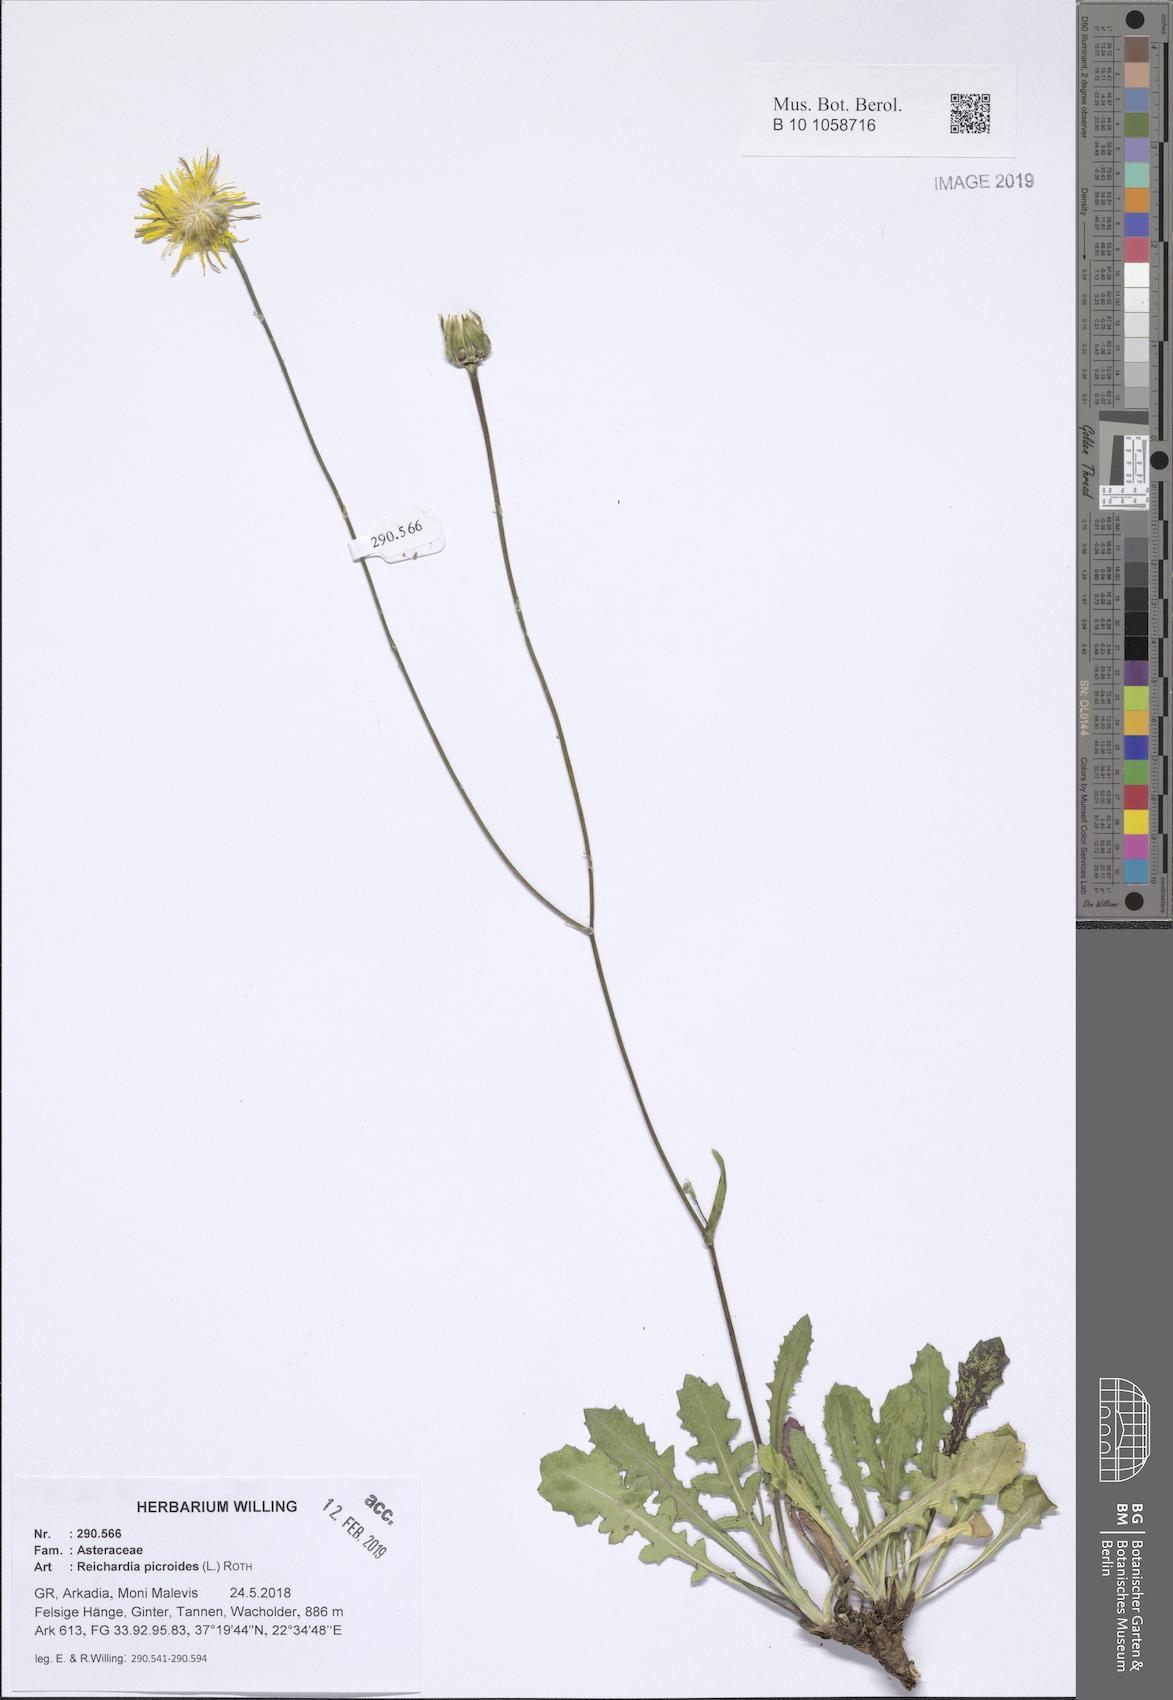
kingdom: Plantae
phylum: Tracheophyta
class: Magnoliopsida
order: Asterales
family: Asteraceae
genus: Reichardia
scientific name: Reichardia picroides
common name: Common brighteyes
